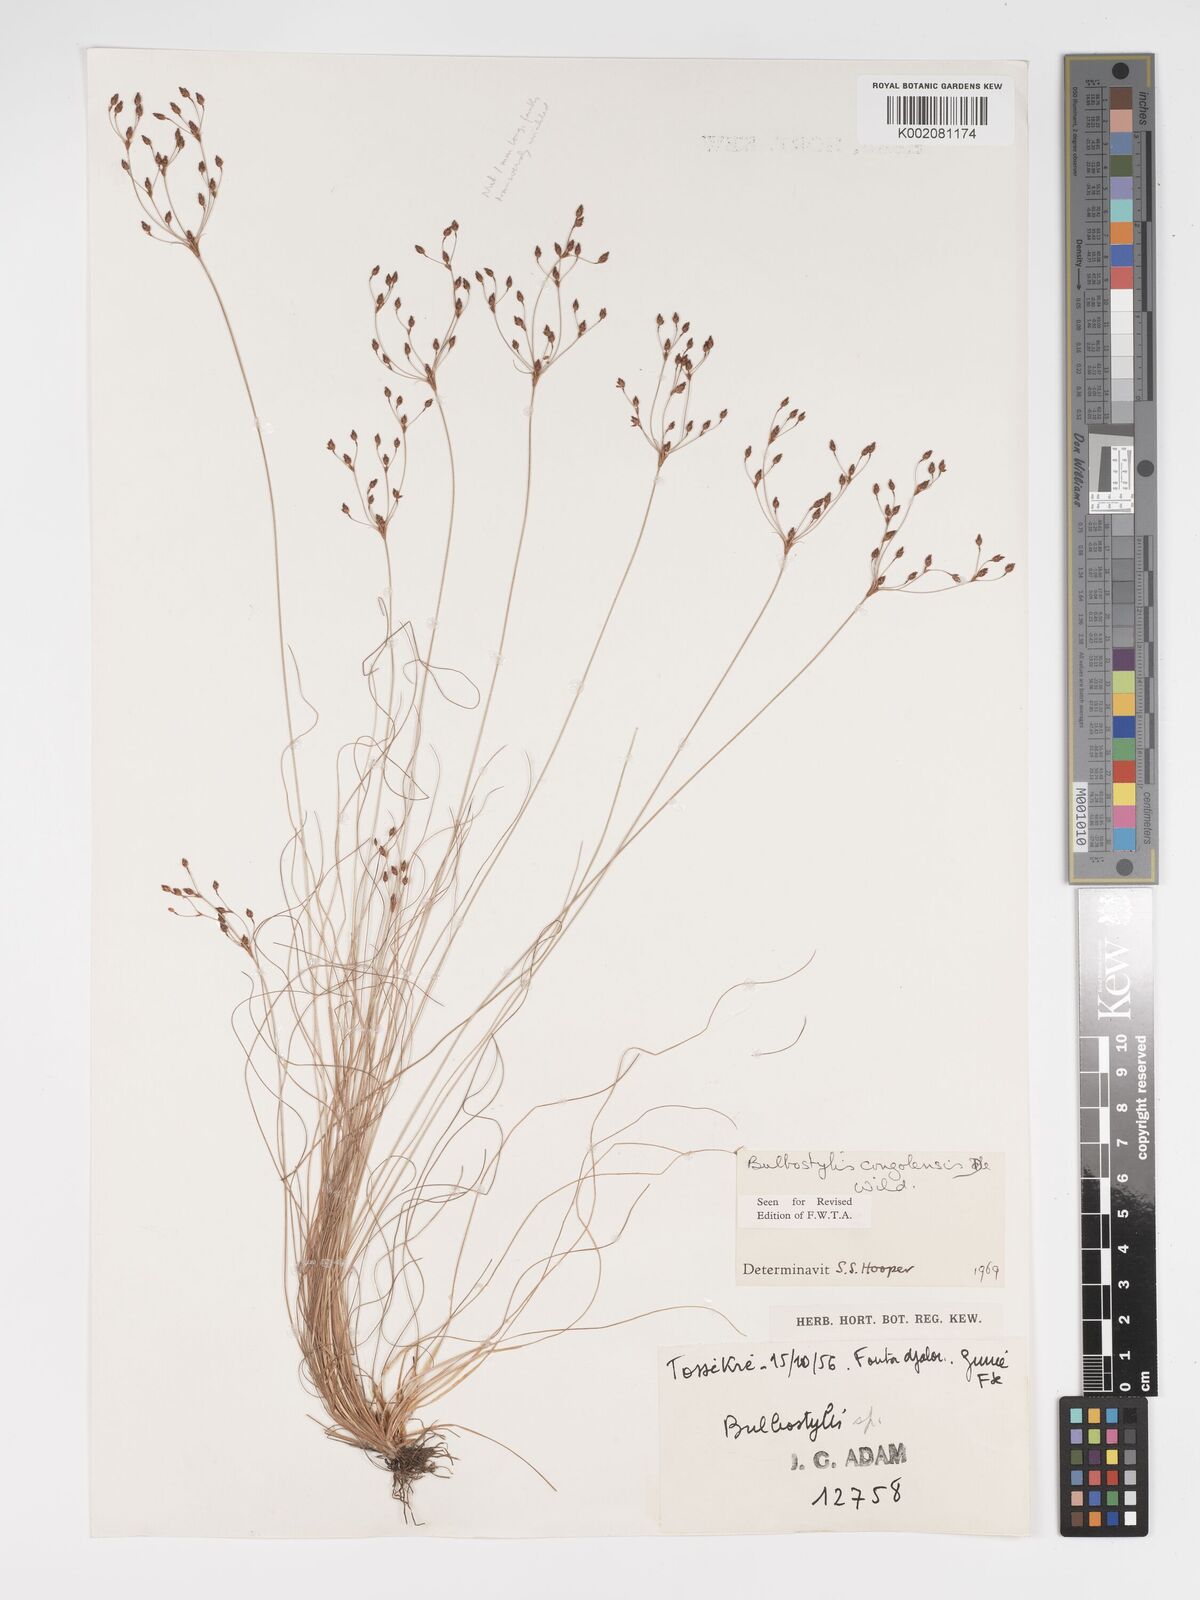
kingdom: Plantae
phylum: Tracheophyta
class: Liliopsida
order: Poales
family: Cyperaceae
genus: Bulbostylis
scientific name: Bulbostylis congolensis
